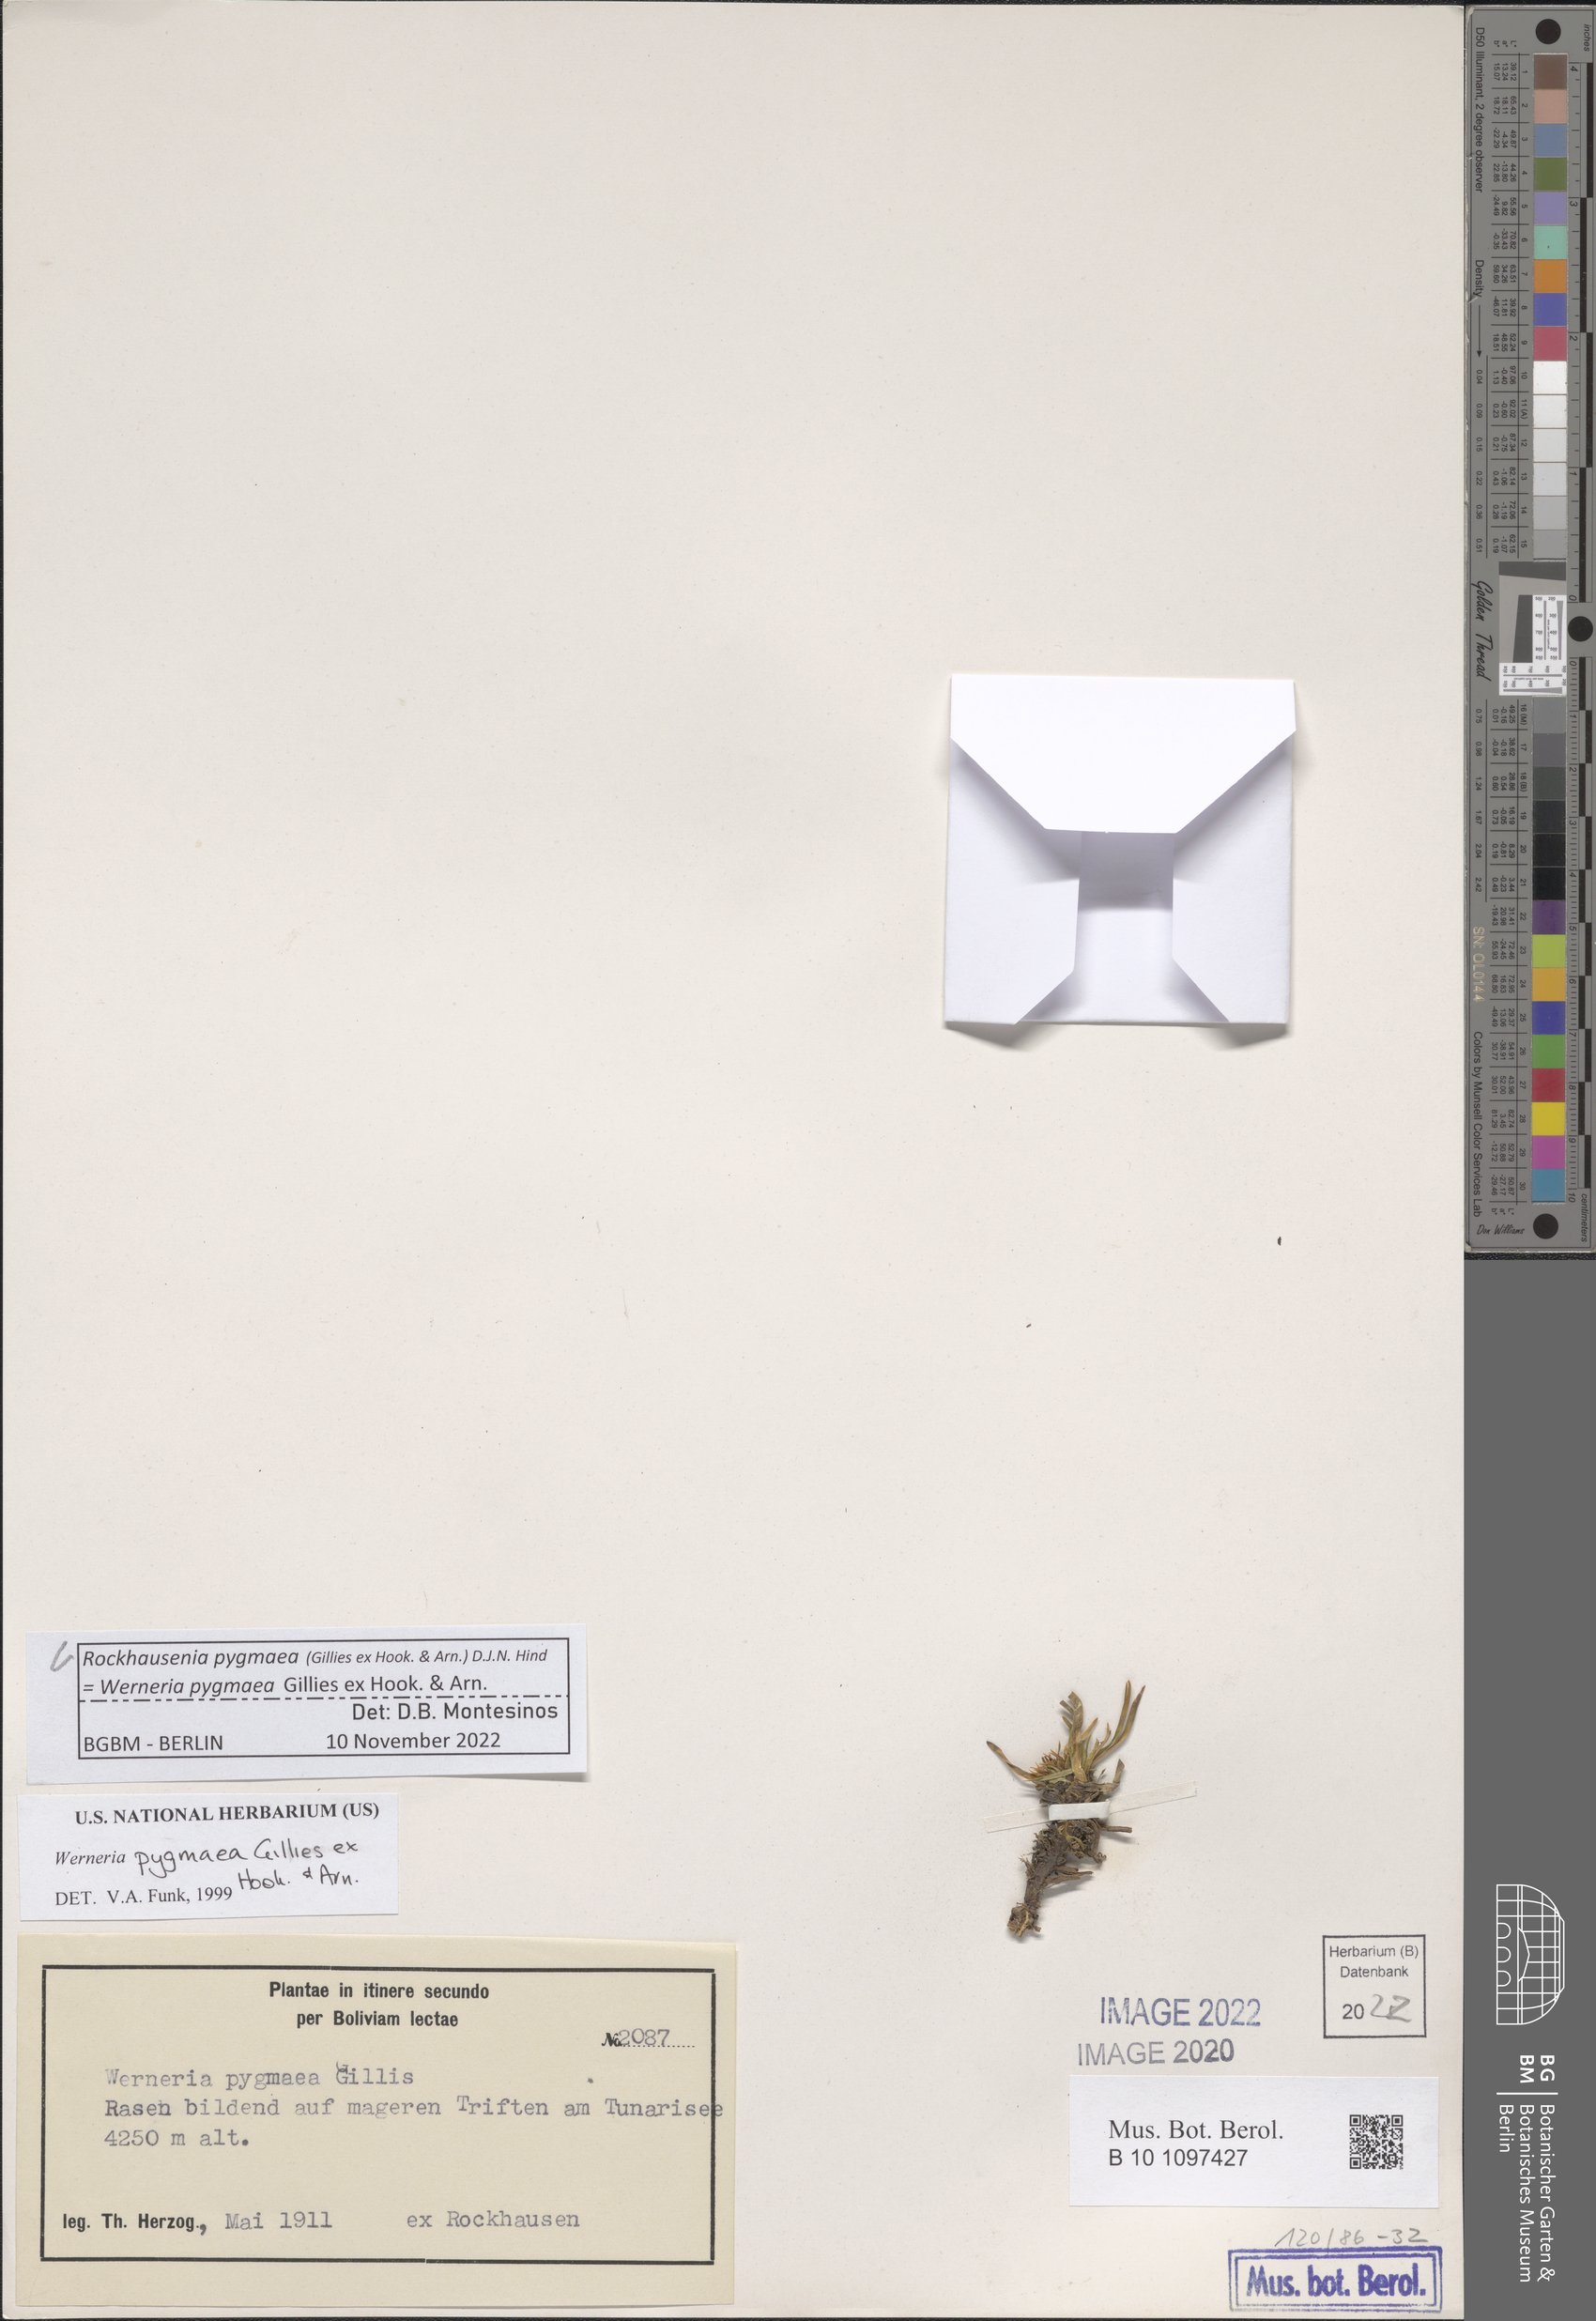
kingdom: Plantae
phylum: Tracheophyta
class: Magnoliopsida
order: Asterales
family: Asteraceae
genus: Rockhausenia
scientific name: Rockhausenia pygmaea
